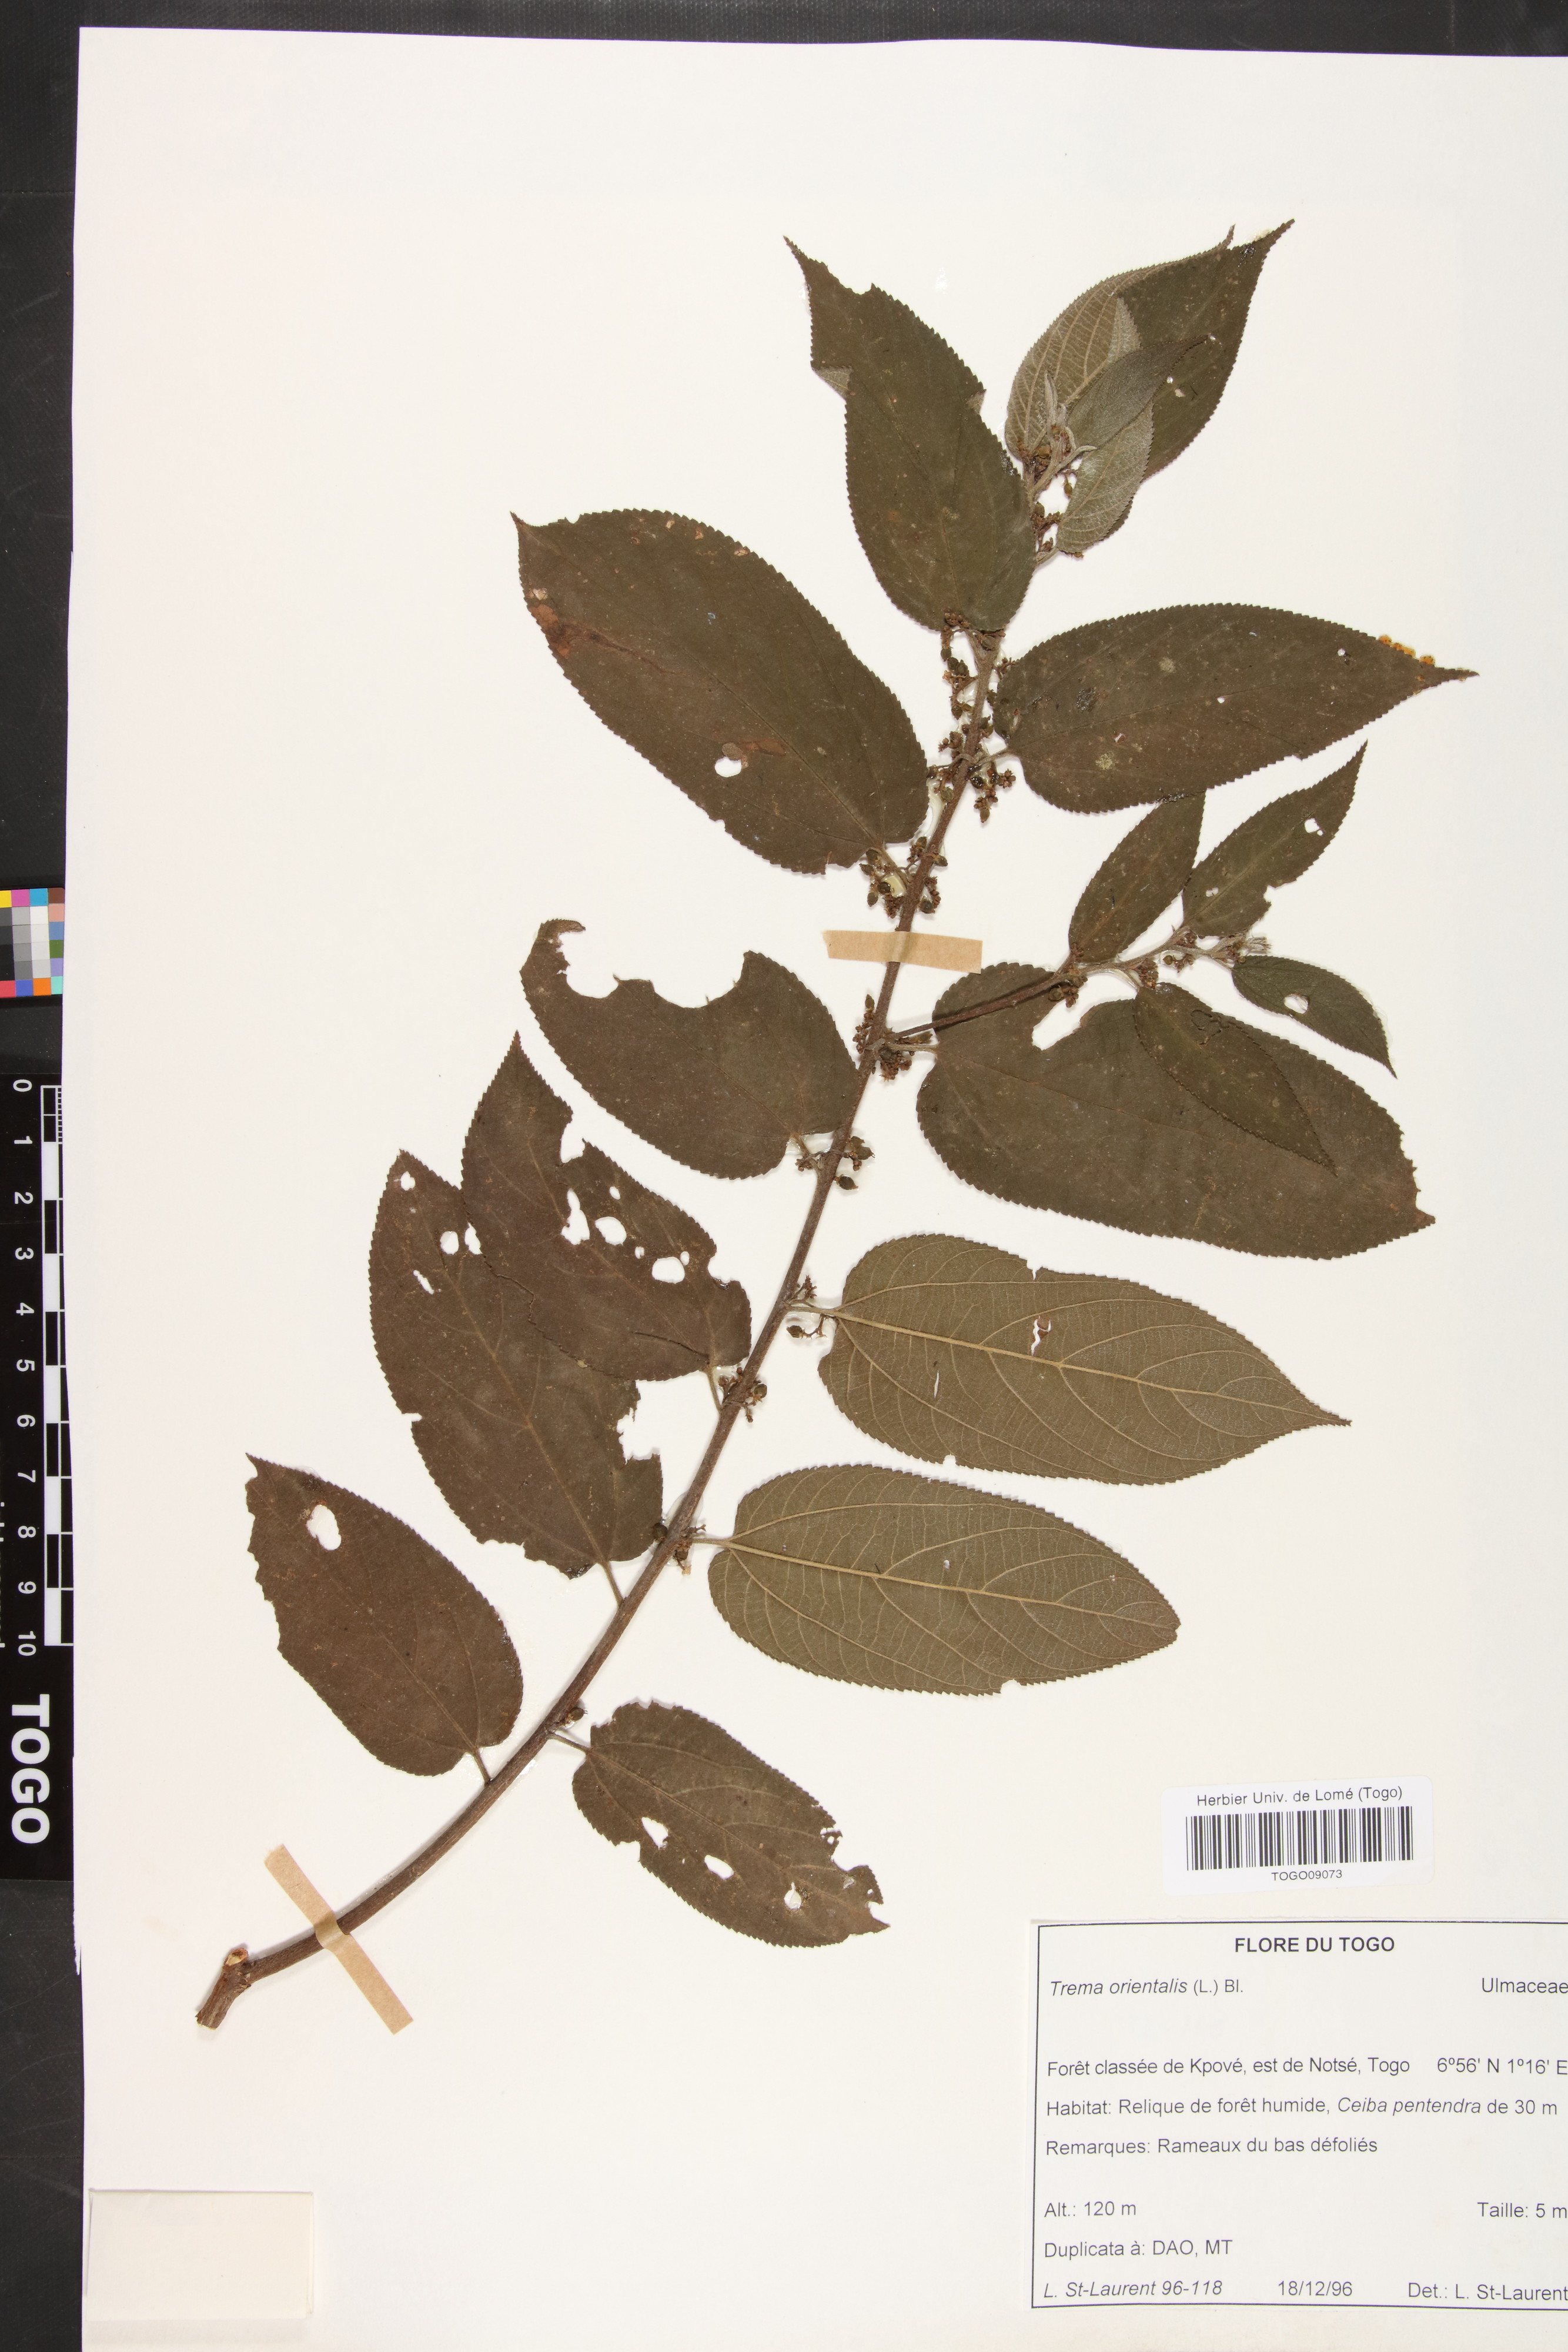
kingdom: Plantae
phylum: Tracheophyta
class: Magnoliopsida
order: Rosales
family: Cannabaceae
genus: Trema
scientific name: Trema orientale
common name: Indian charcoal tree
